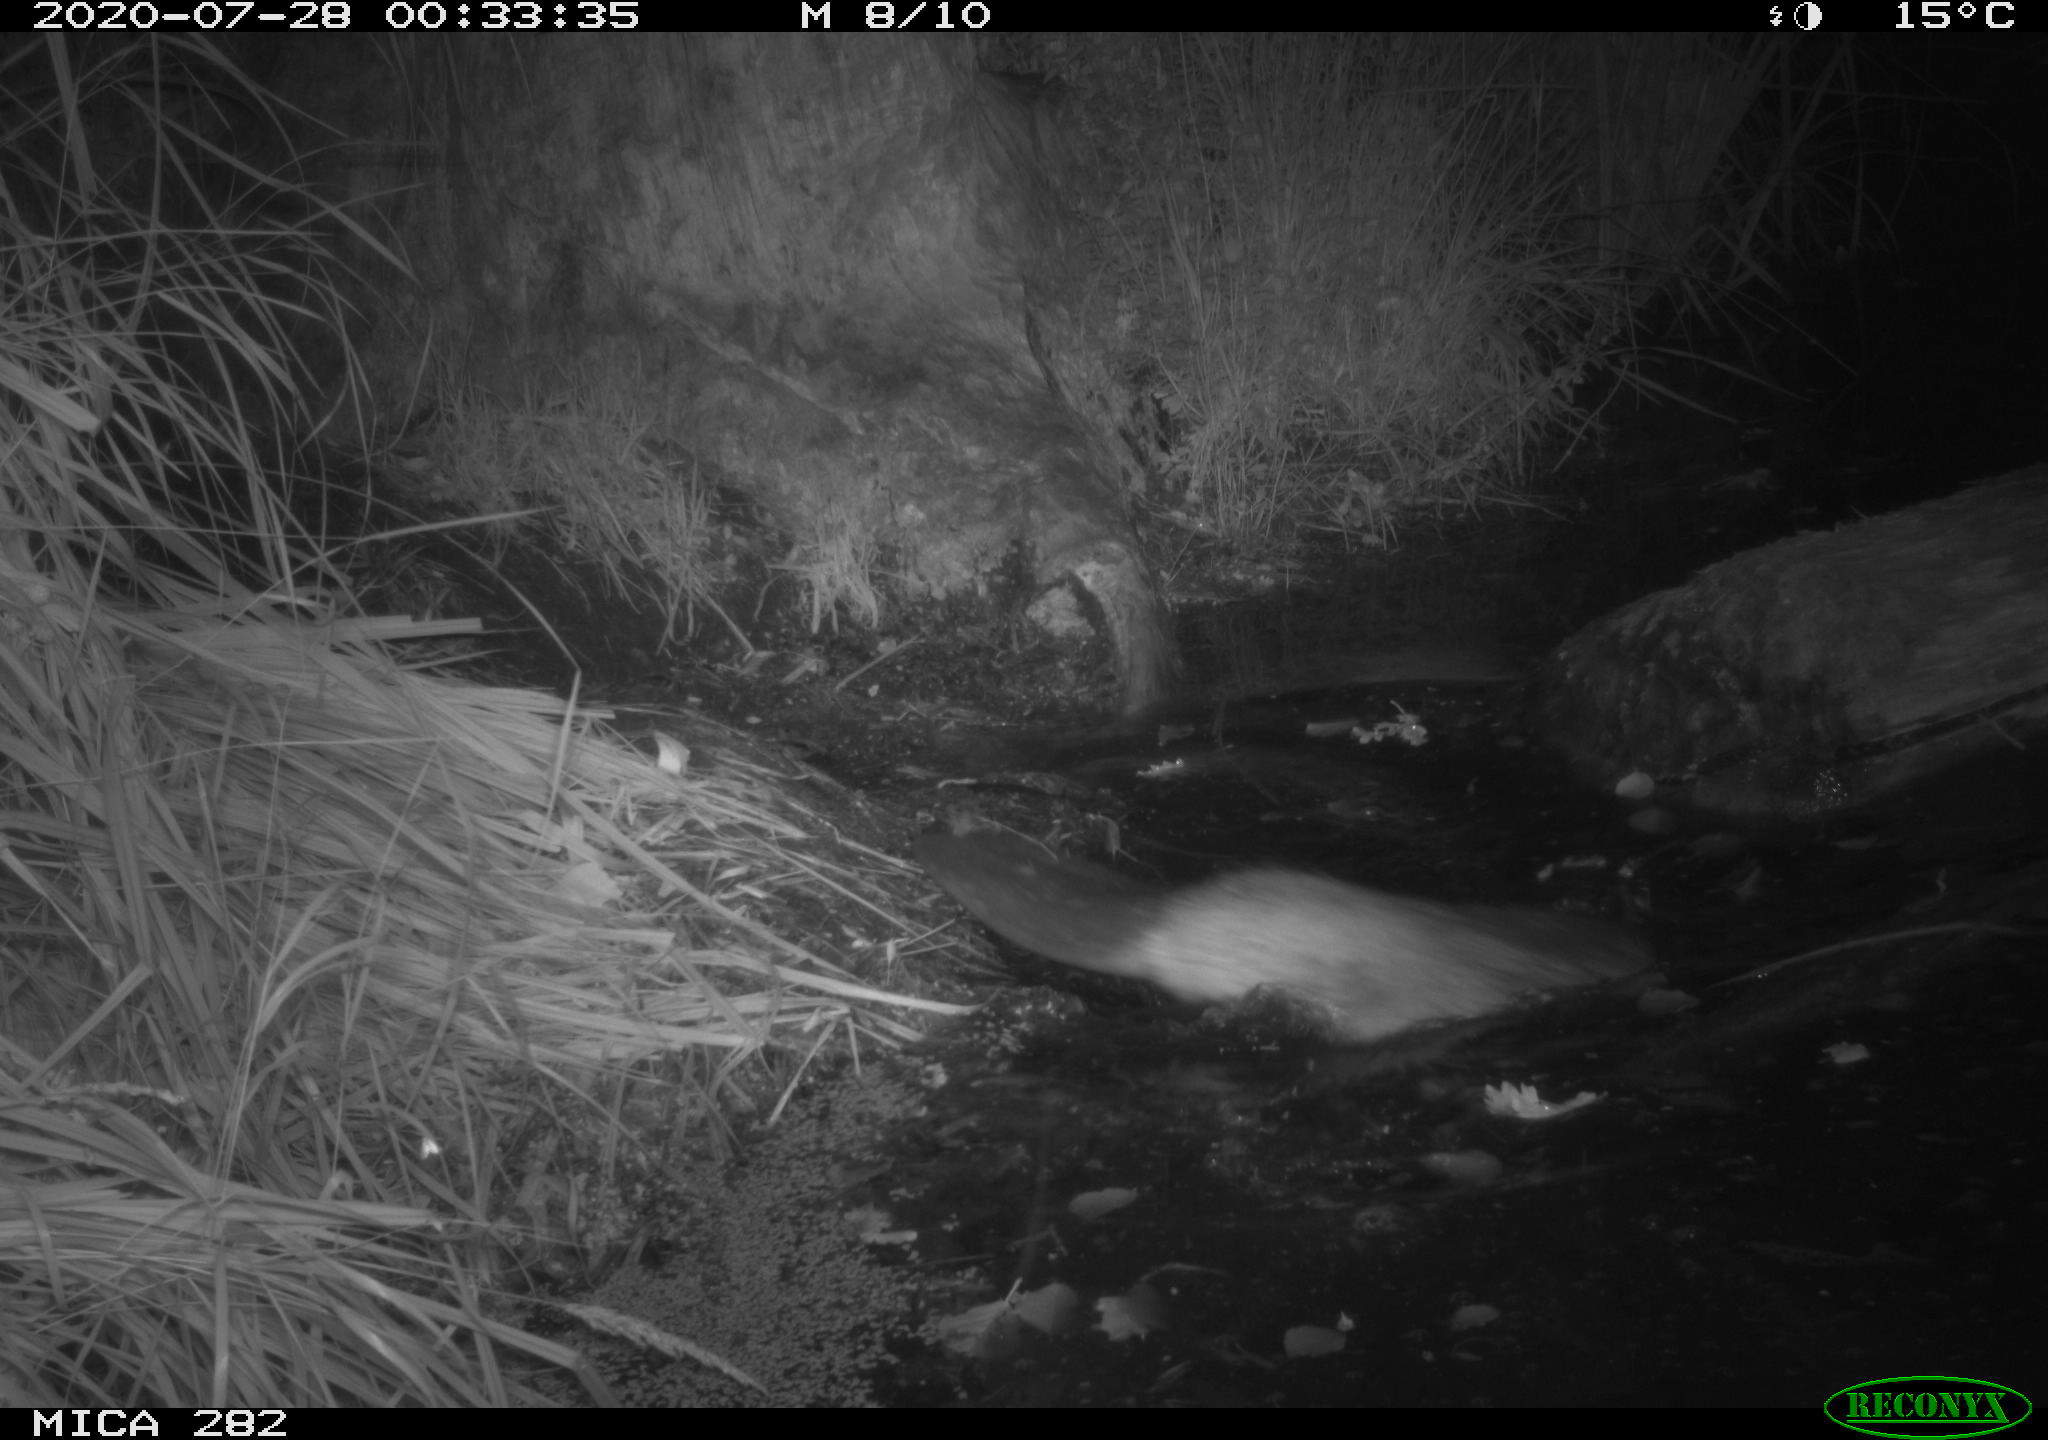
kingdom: Animalia
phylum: Chordata
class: Mammalia
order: Rodentia
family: Castoridae
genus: Castor
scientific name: Castor fiber
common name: Eurasian beaver
